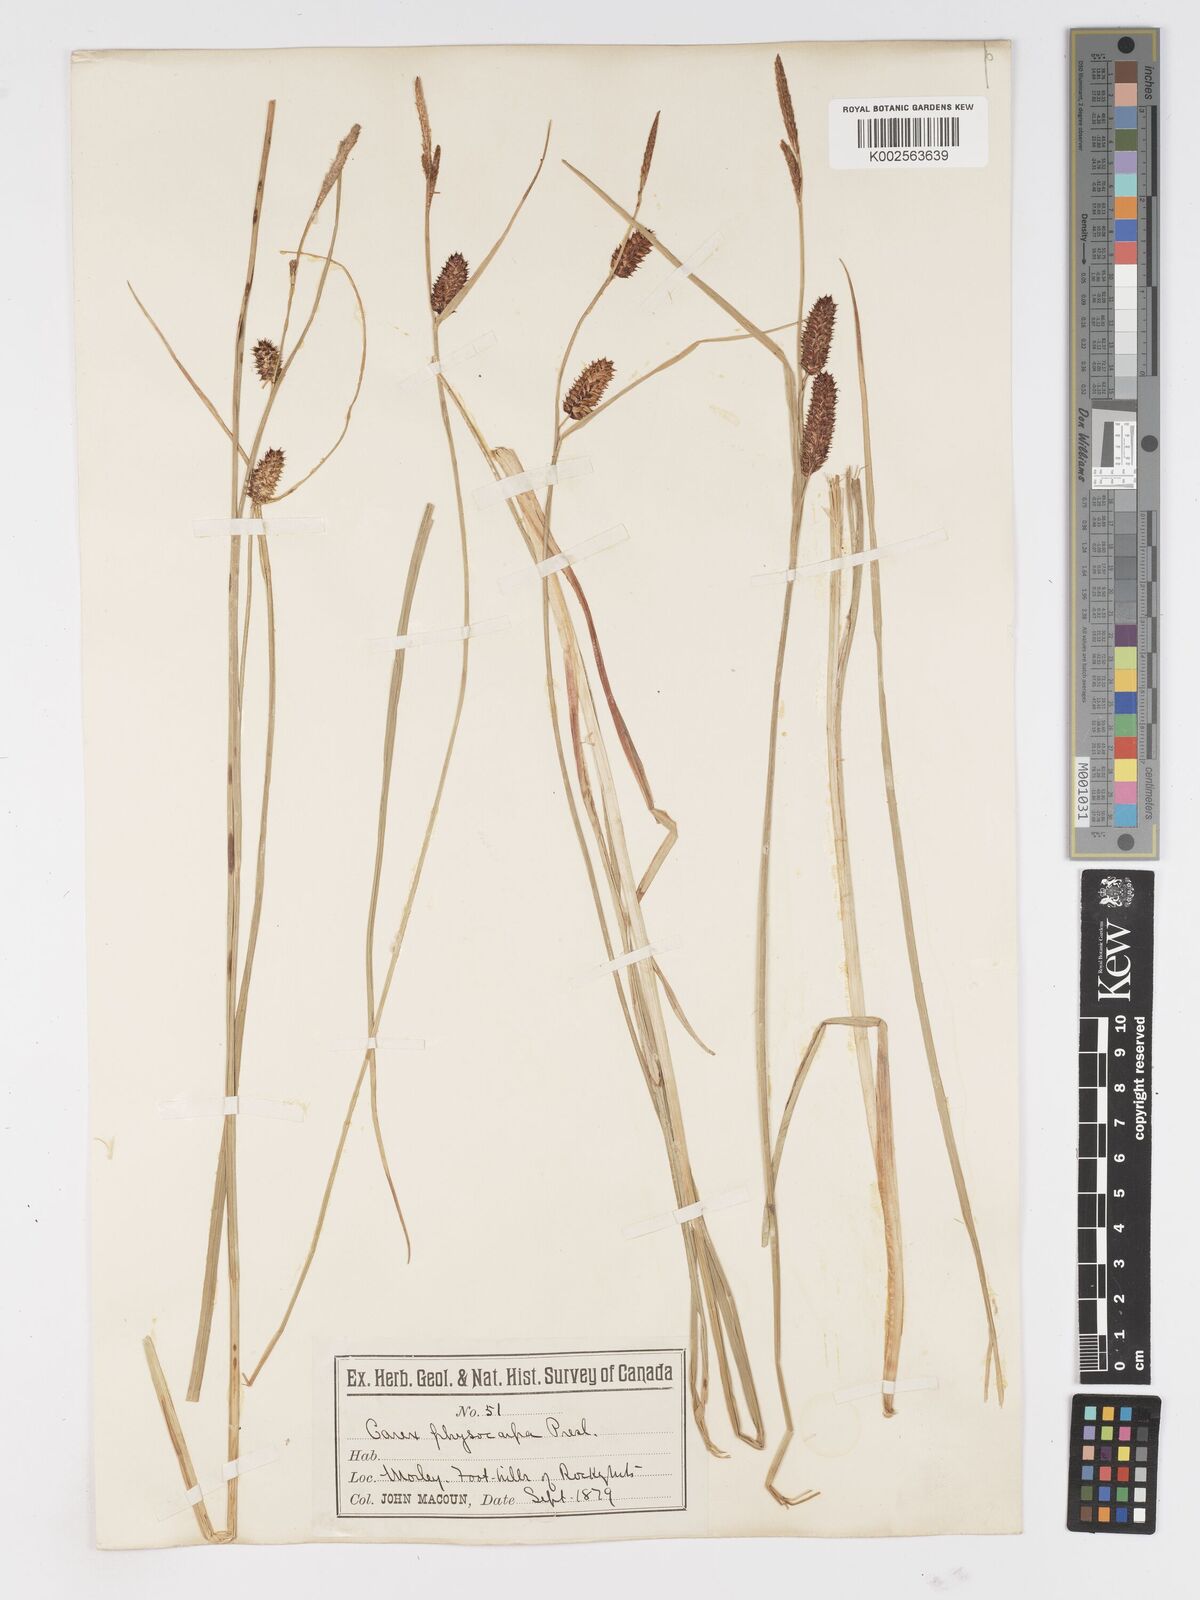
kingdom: Plantae
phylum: Tracheophyta
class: Liliopsida
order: Poales
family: Cyperaceae
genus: Carex
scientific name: Carex saxatilis
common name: Russet sedge
